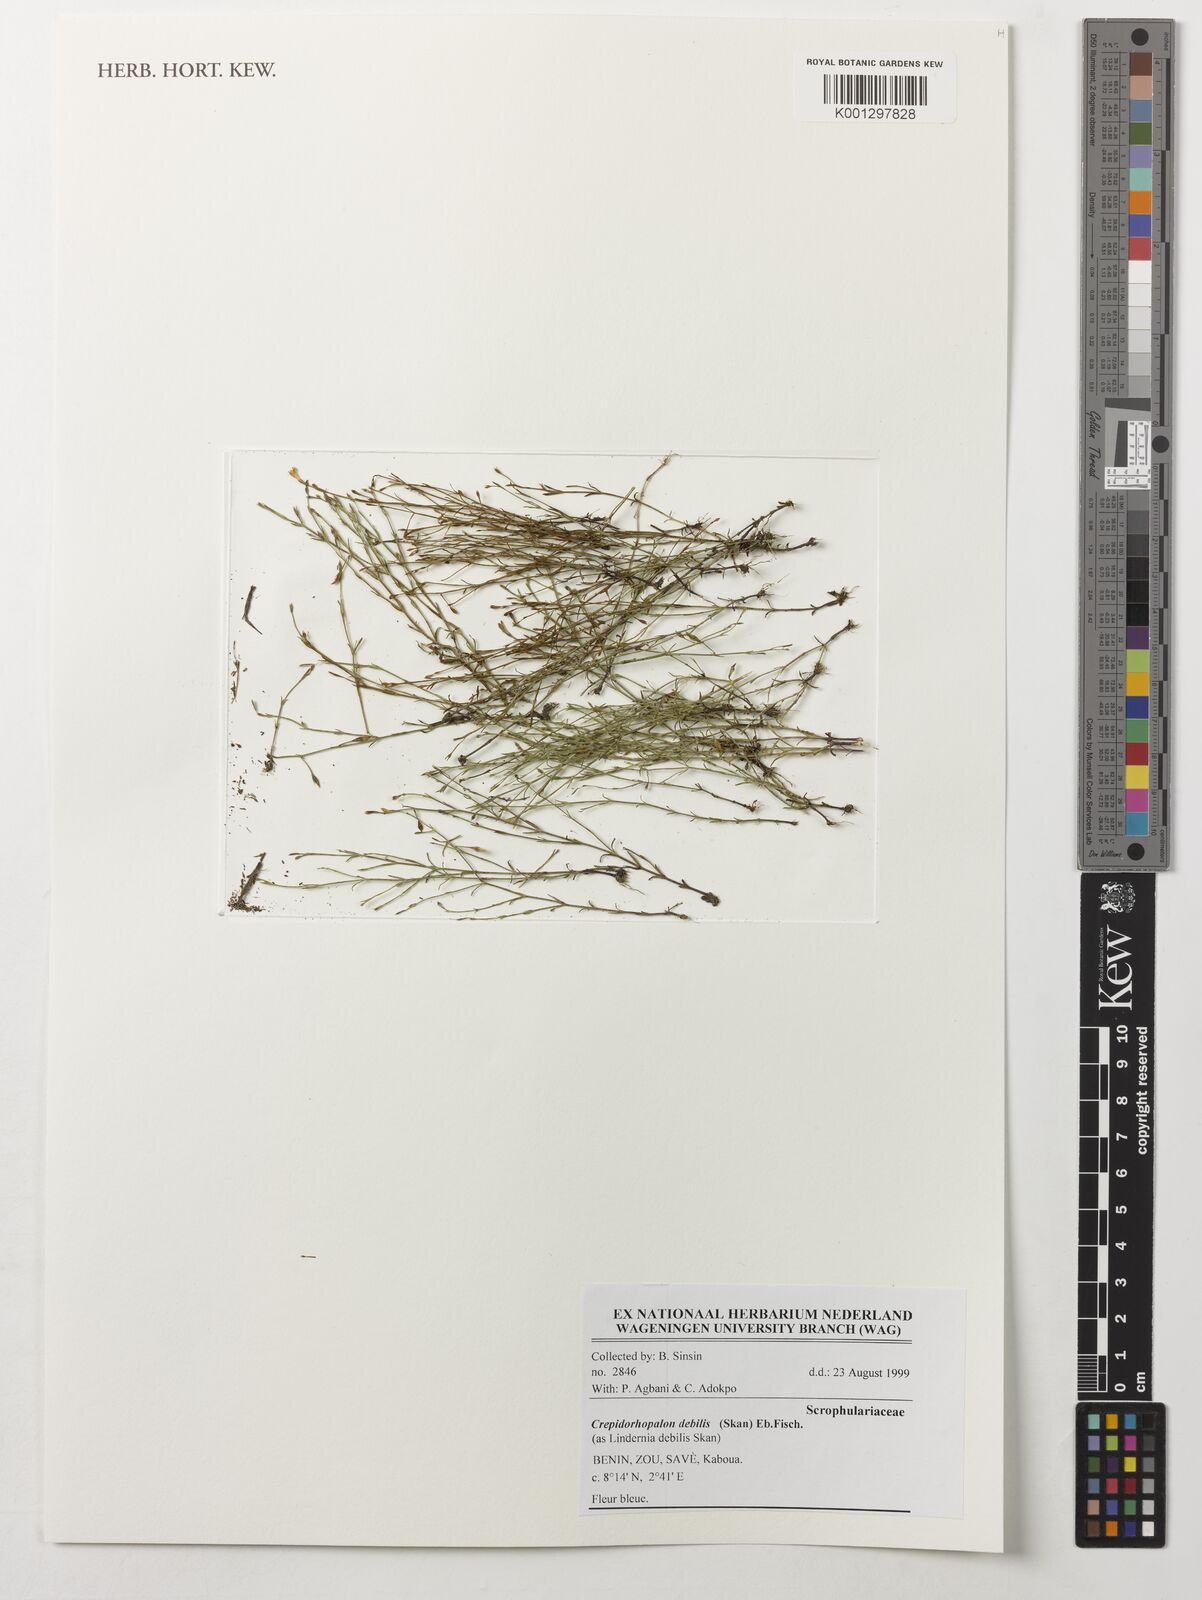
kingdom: Plantae
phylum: Tracheophyta
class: Magnoliopsida
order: Lamiales
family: Linderniaceae
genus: Crepidorhopalon
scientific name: Crepidorhopalon debilis
